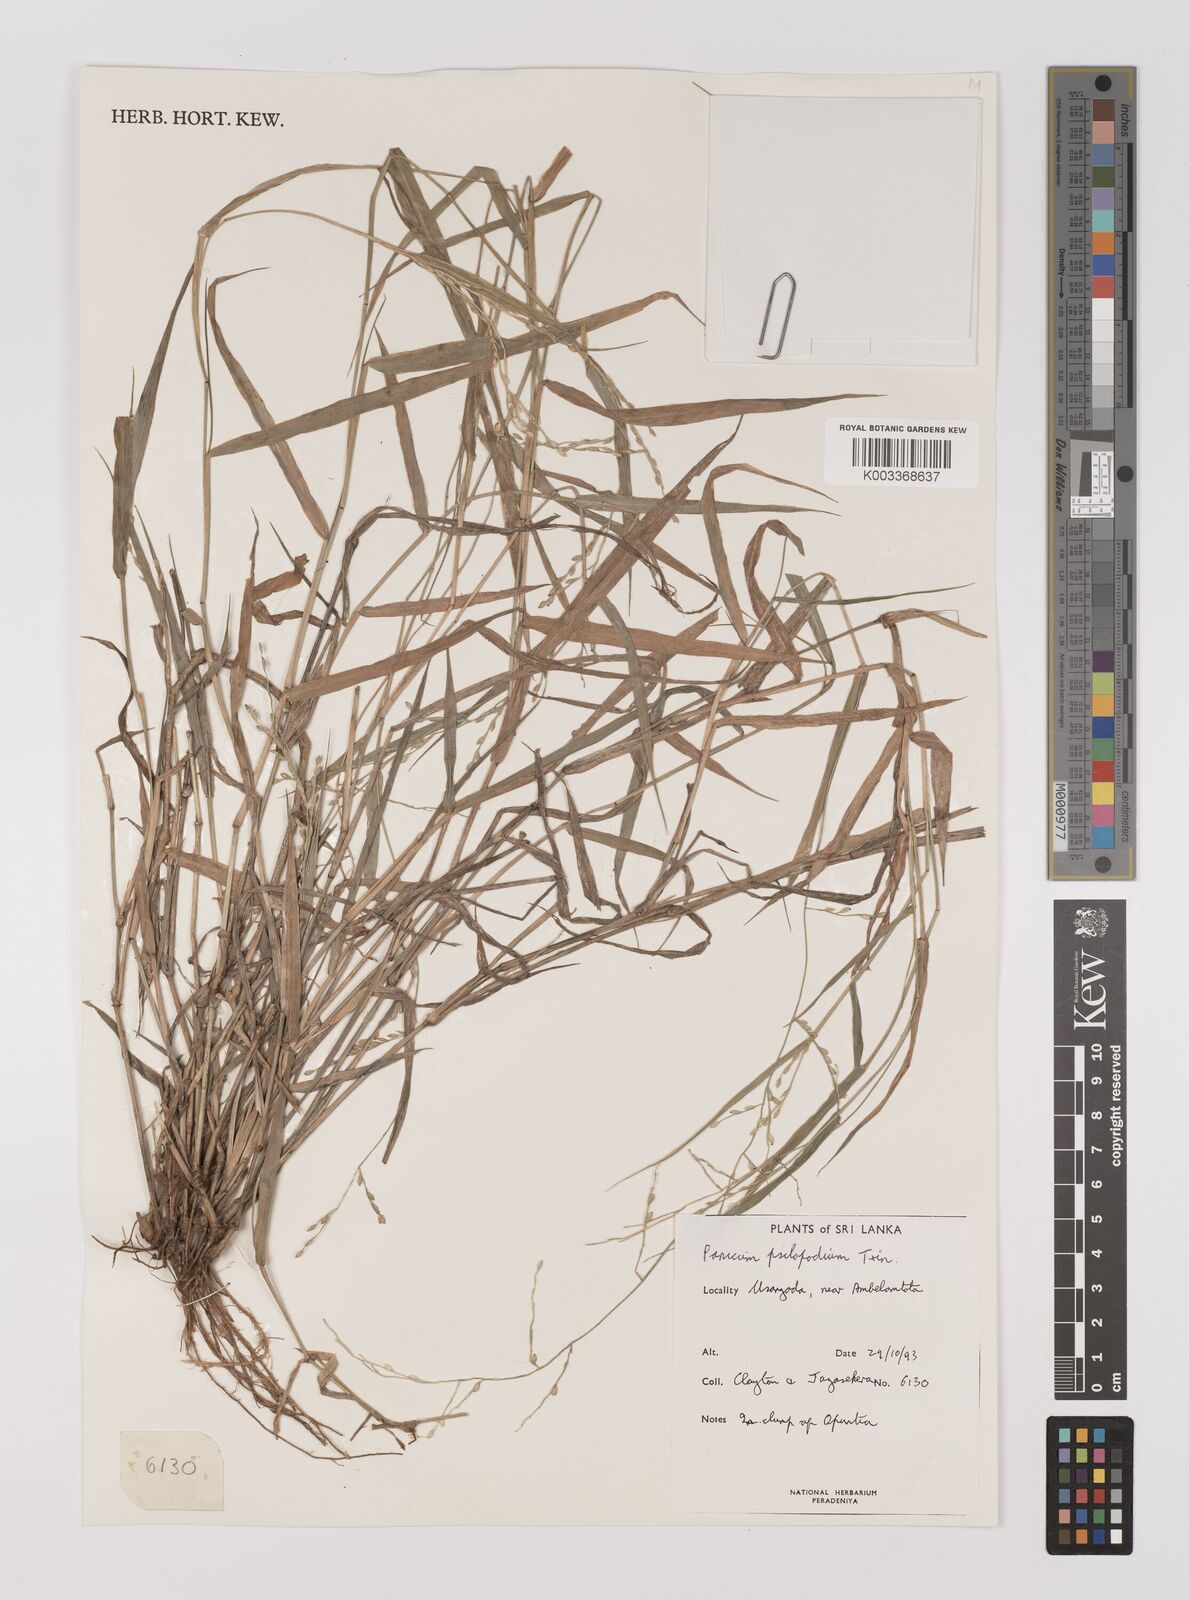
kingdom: Plantae
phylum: Tracheophyta
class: Liliopsida
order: Poales
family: Poaceae
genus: Panicum
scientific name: Panicum sumatrense
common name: Little millet
